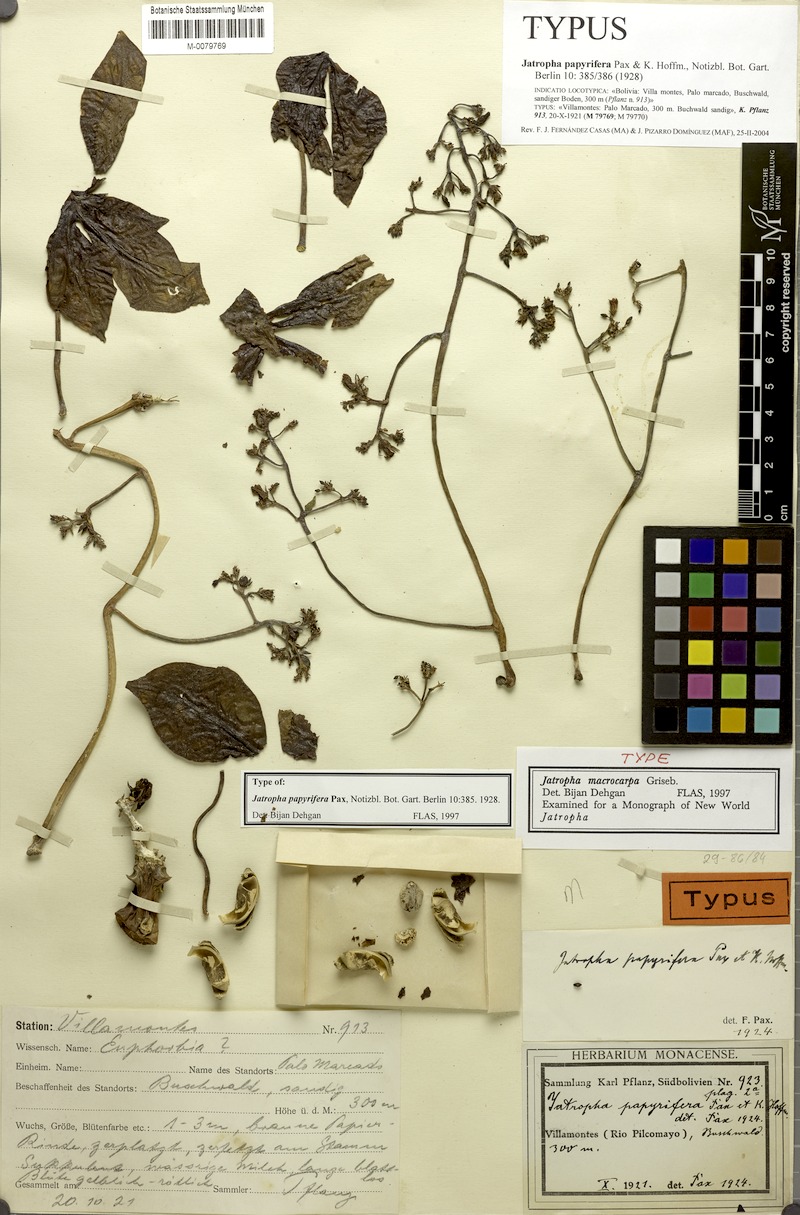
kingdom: Plantae
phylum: Tracheophyta
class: Magnoliopsida
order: Malpighiales
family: Euphorbiaceae
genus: Jatropha
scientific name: Jatropha macrocarpa
